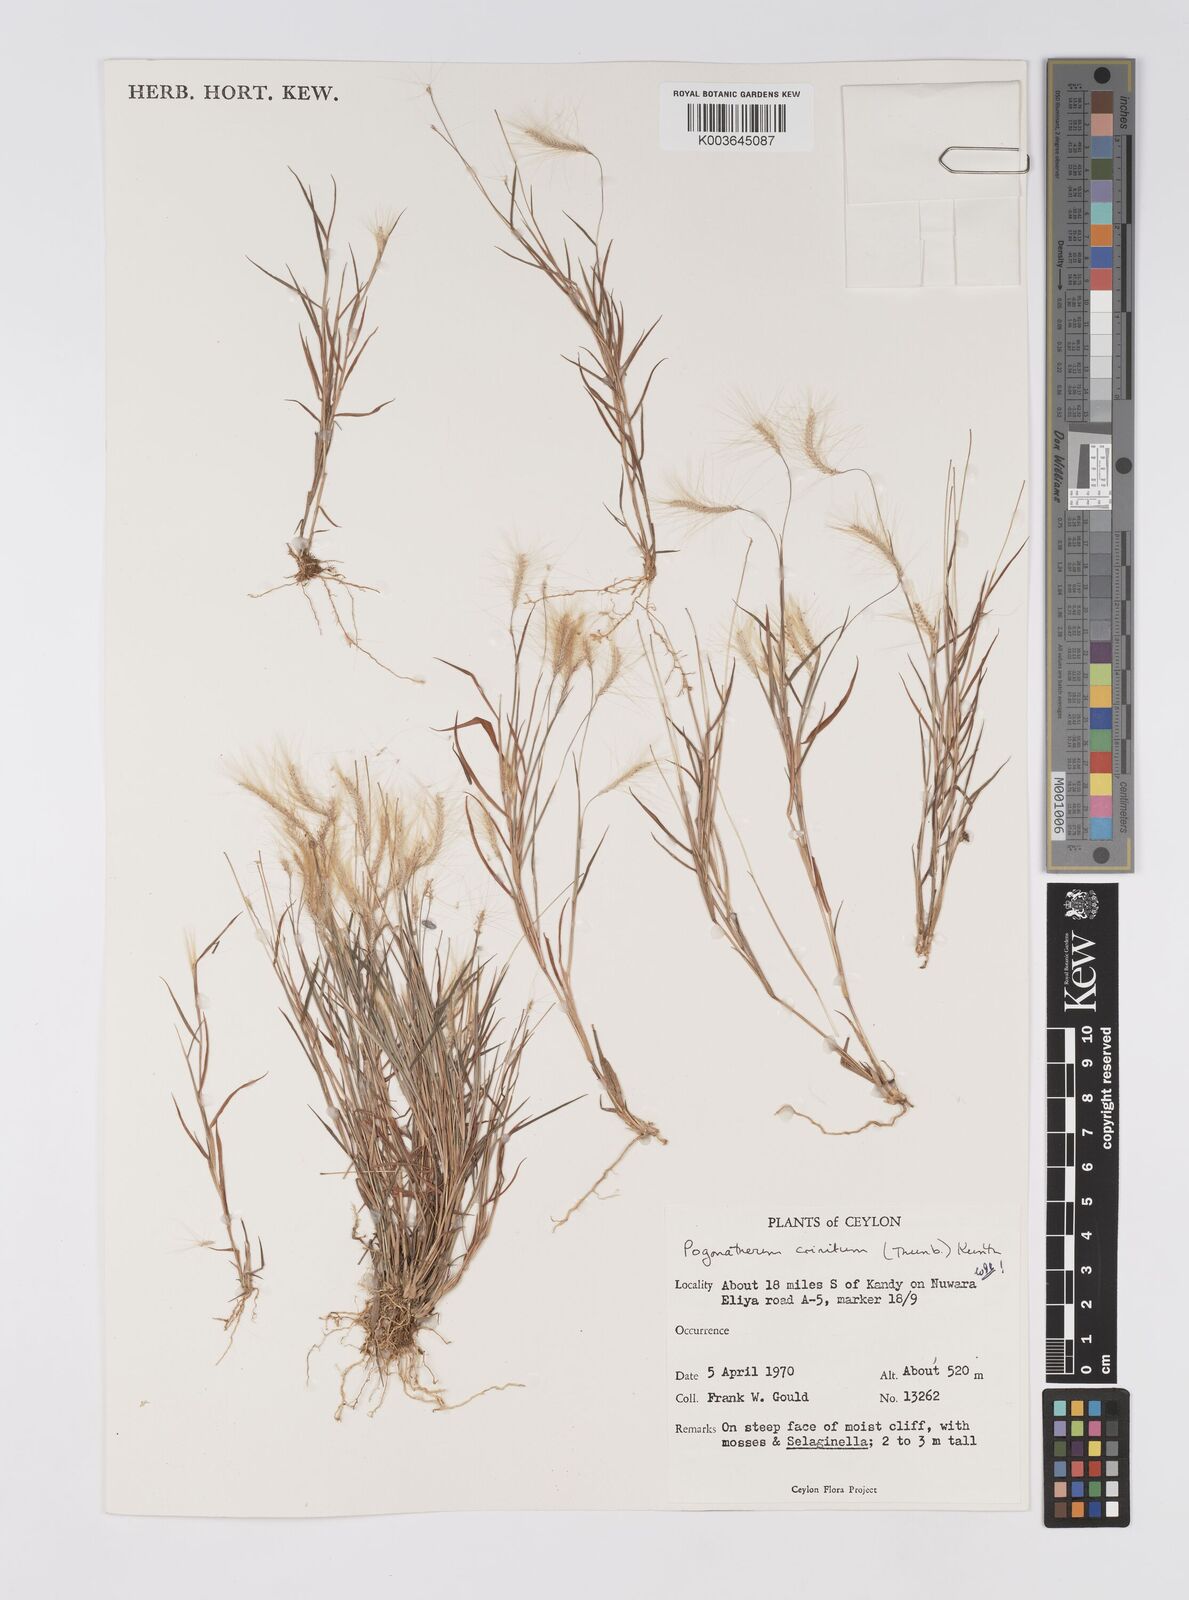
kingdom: Plantae
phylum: Tracheophyta
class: Liliopsida
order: Poales
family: Poaceae
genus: Pogonatherum
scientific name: Pogonatherum crinitum
